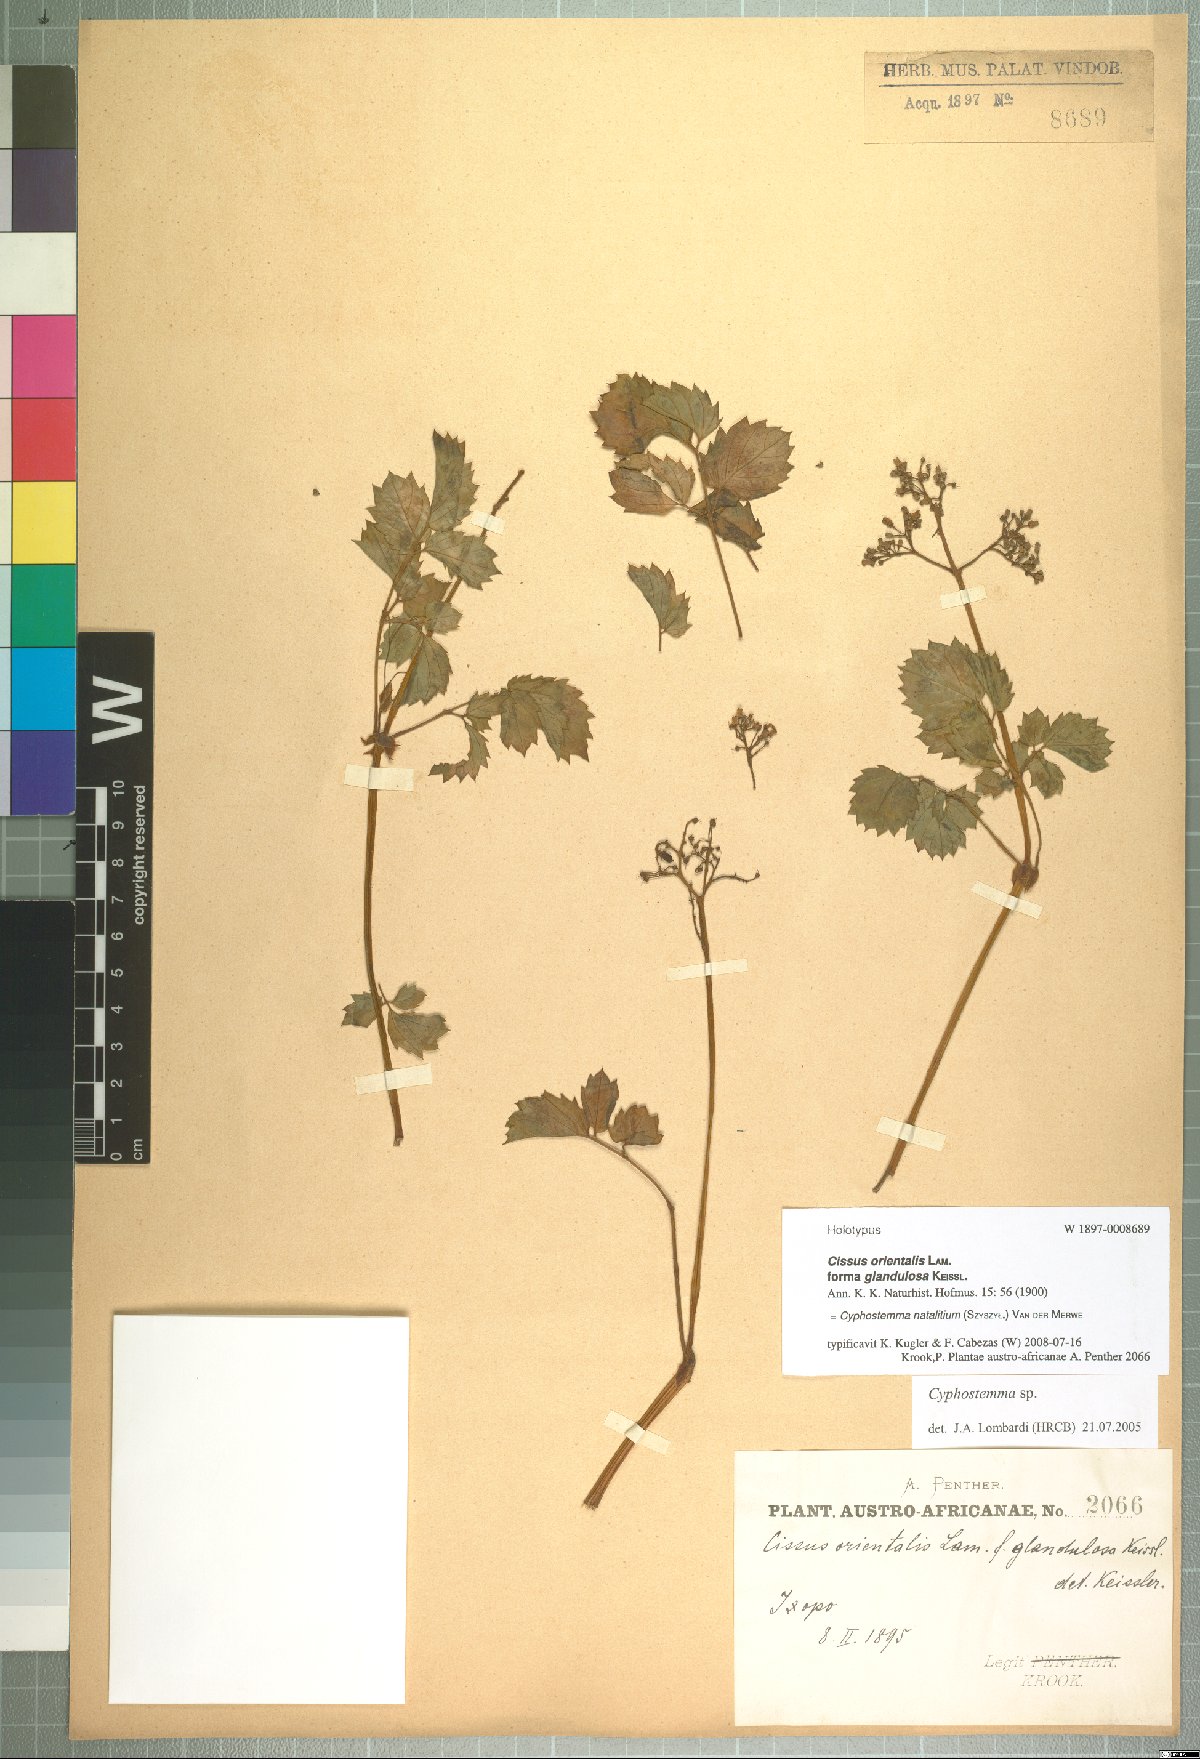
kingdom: Plantae
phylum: Tracheophyta
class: Magnoliopsida
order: Vitales
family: Vitaceae
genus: Cyphostemma
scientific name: Cyphostemma
